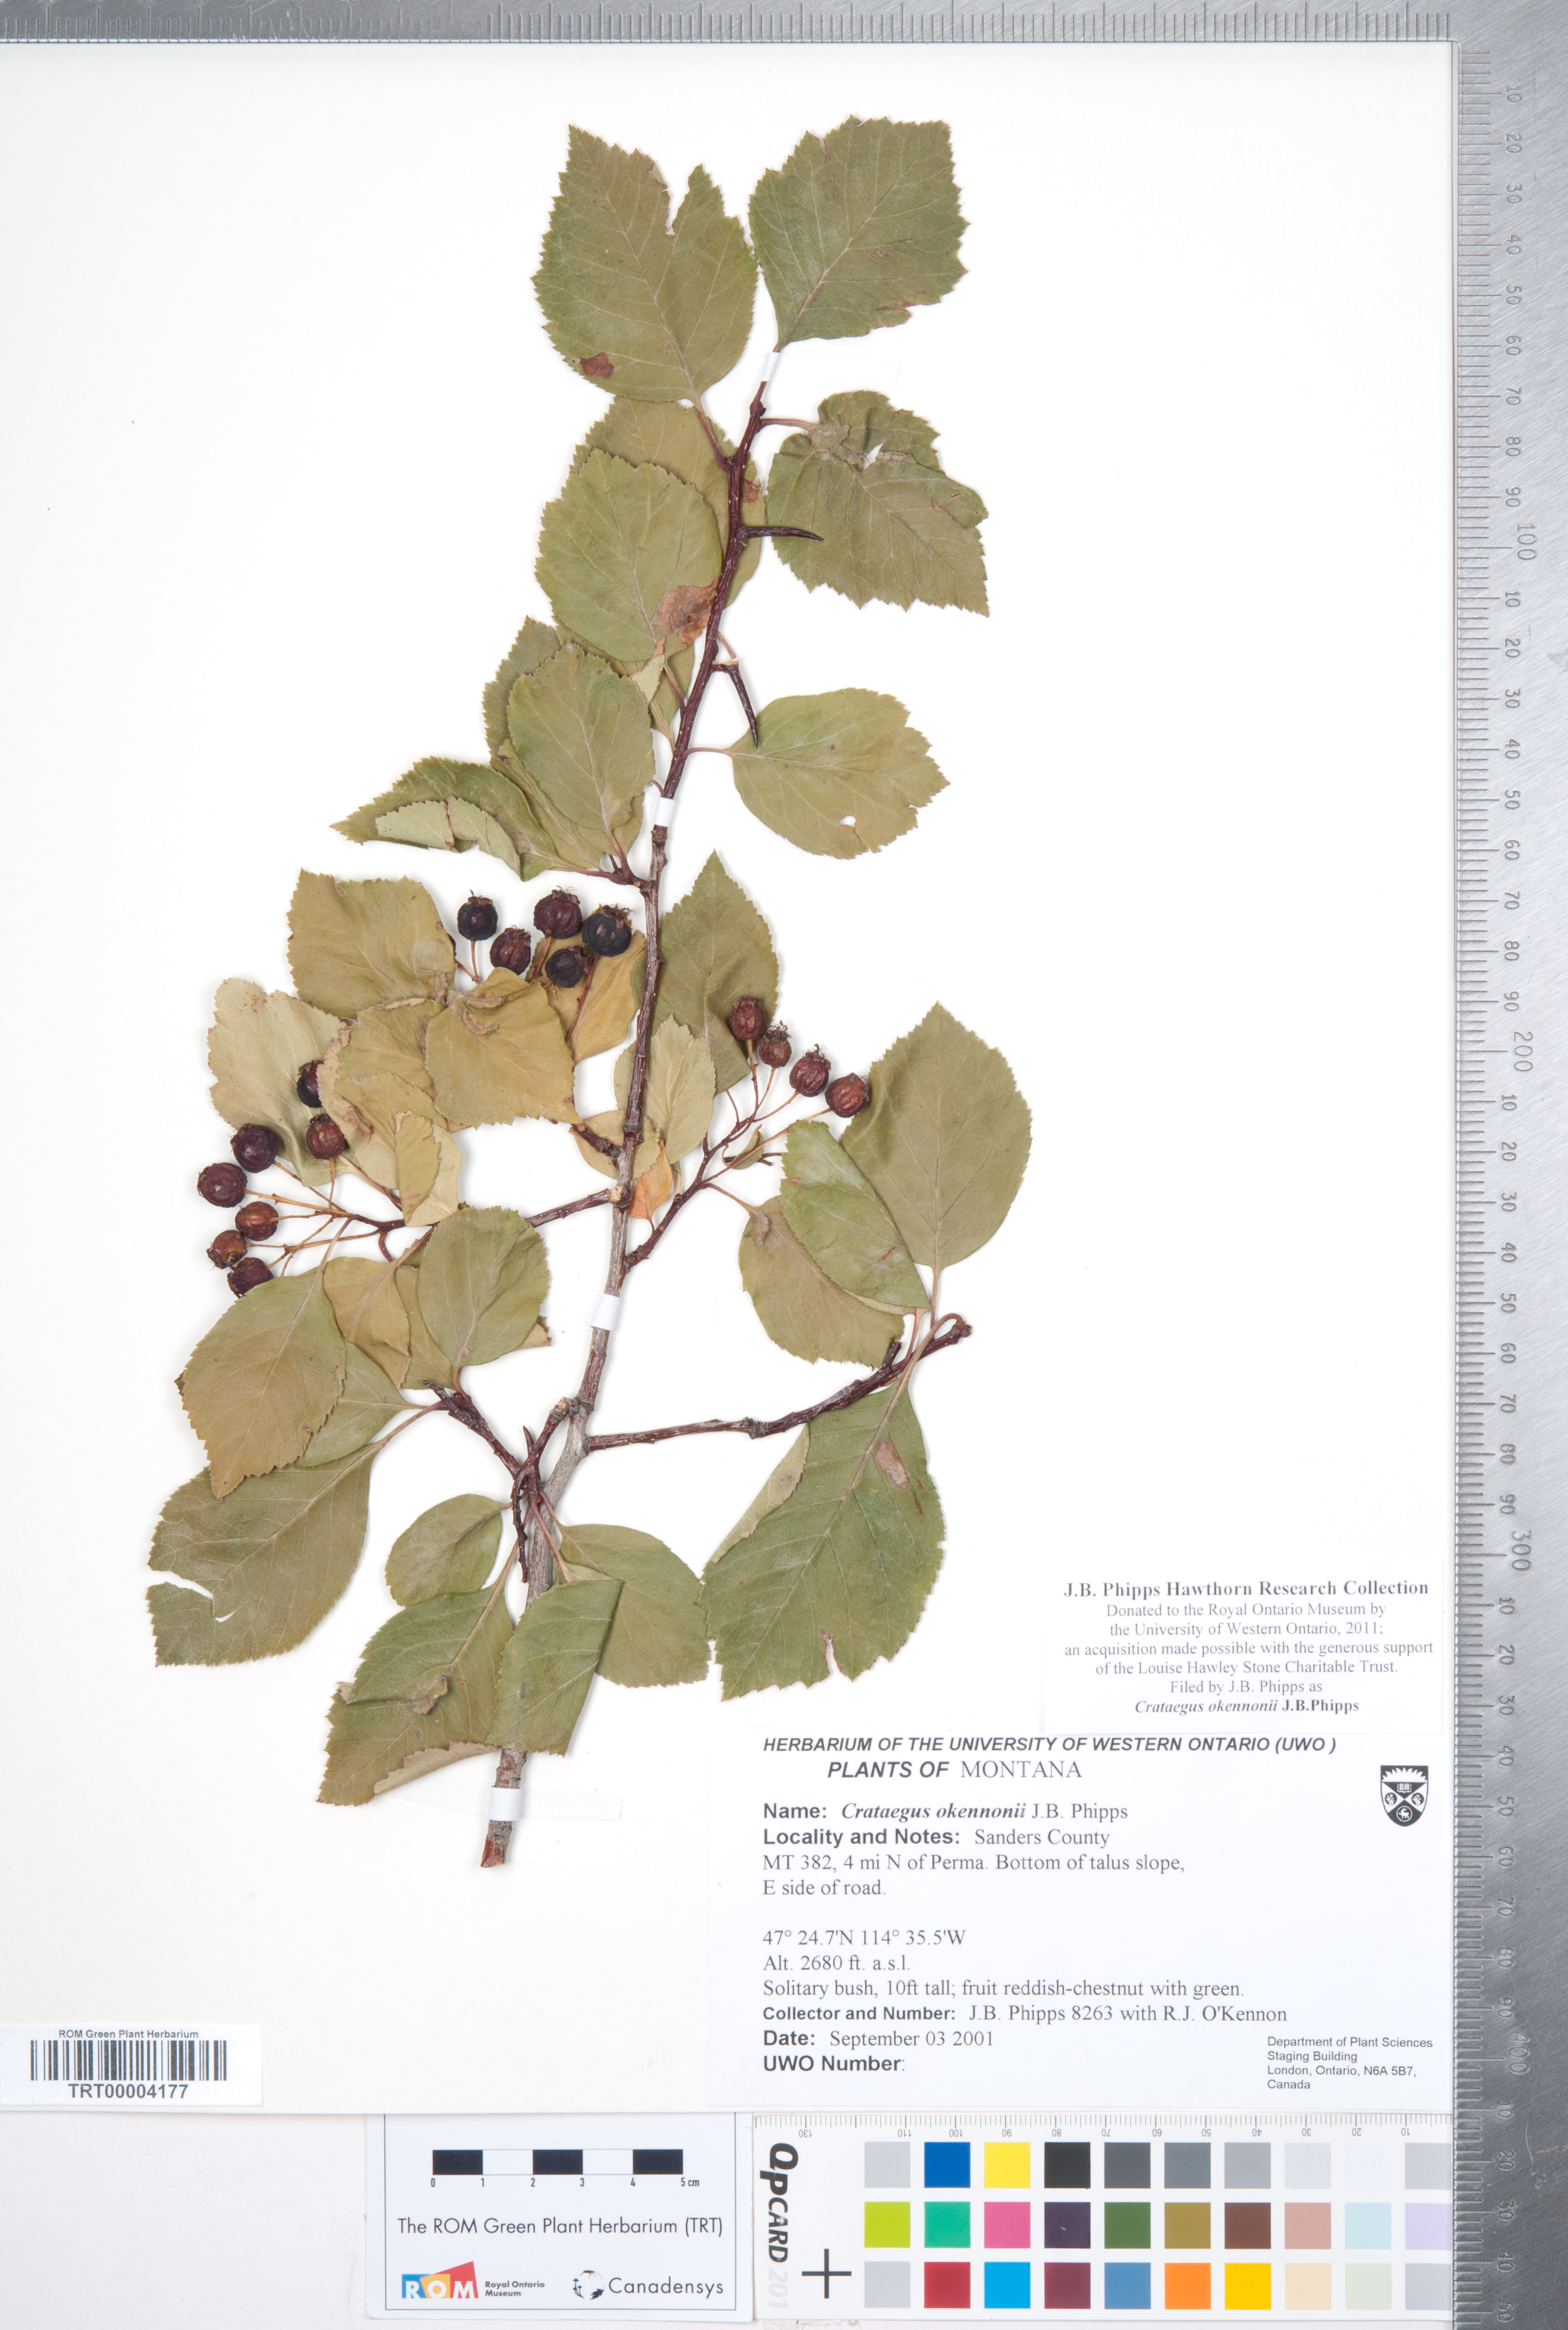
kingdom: Plantae
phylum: Tracheophyta
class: Magnoliopsida
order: Rosales
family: Rosaceae
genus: Crataegus
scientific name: Crataegus okennonii
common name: O'kennon's hawthorn
